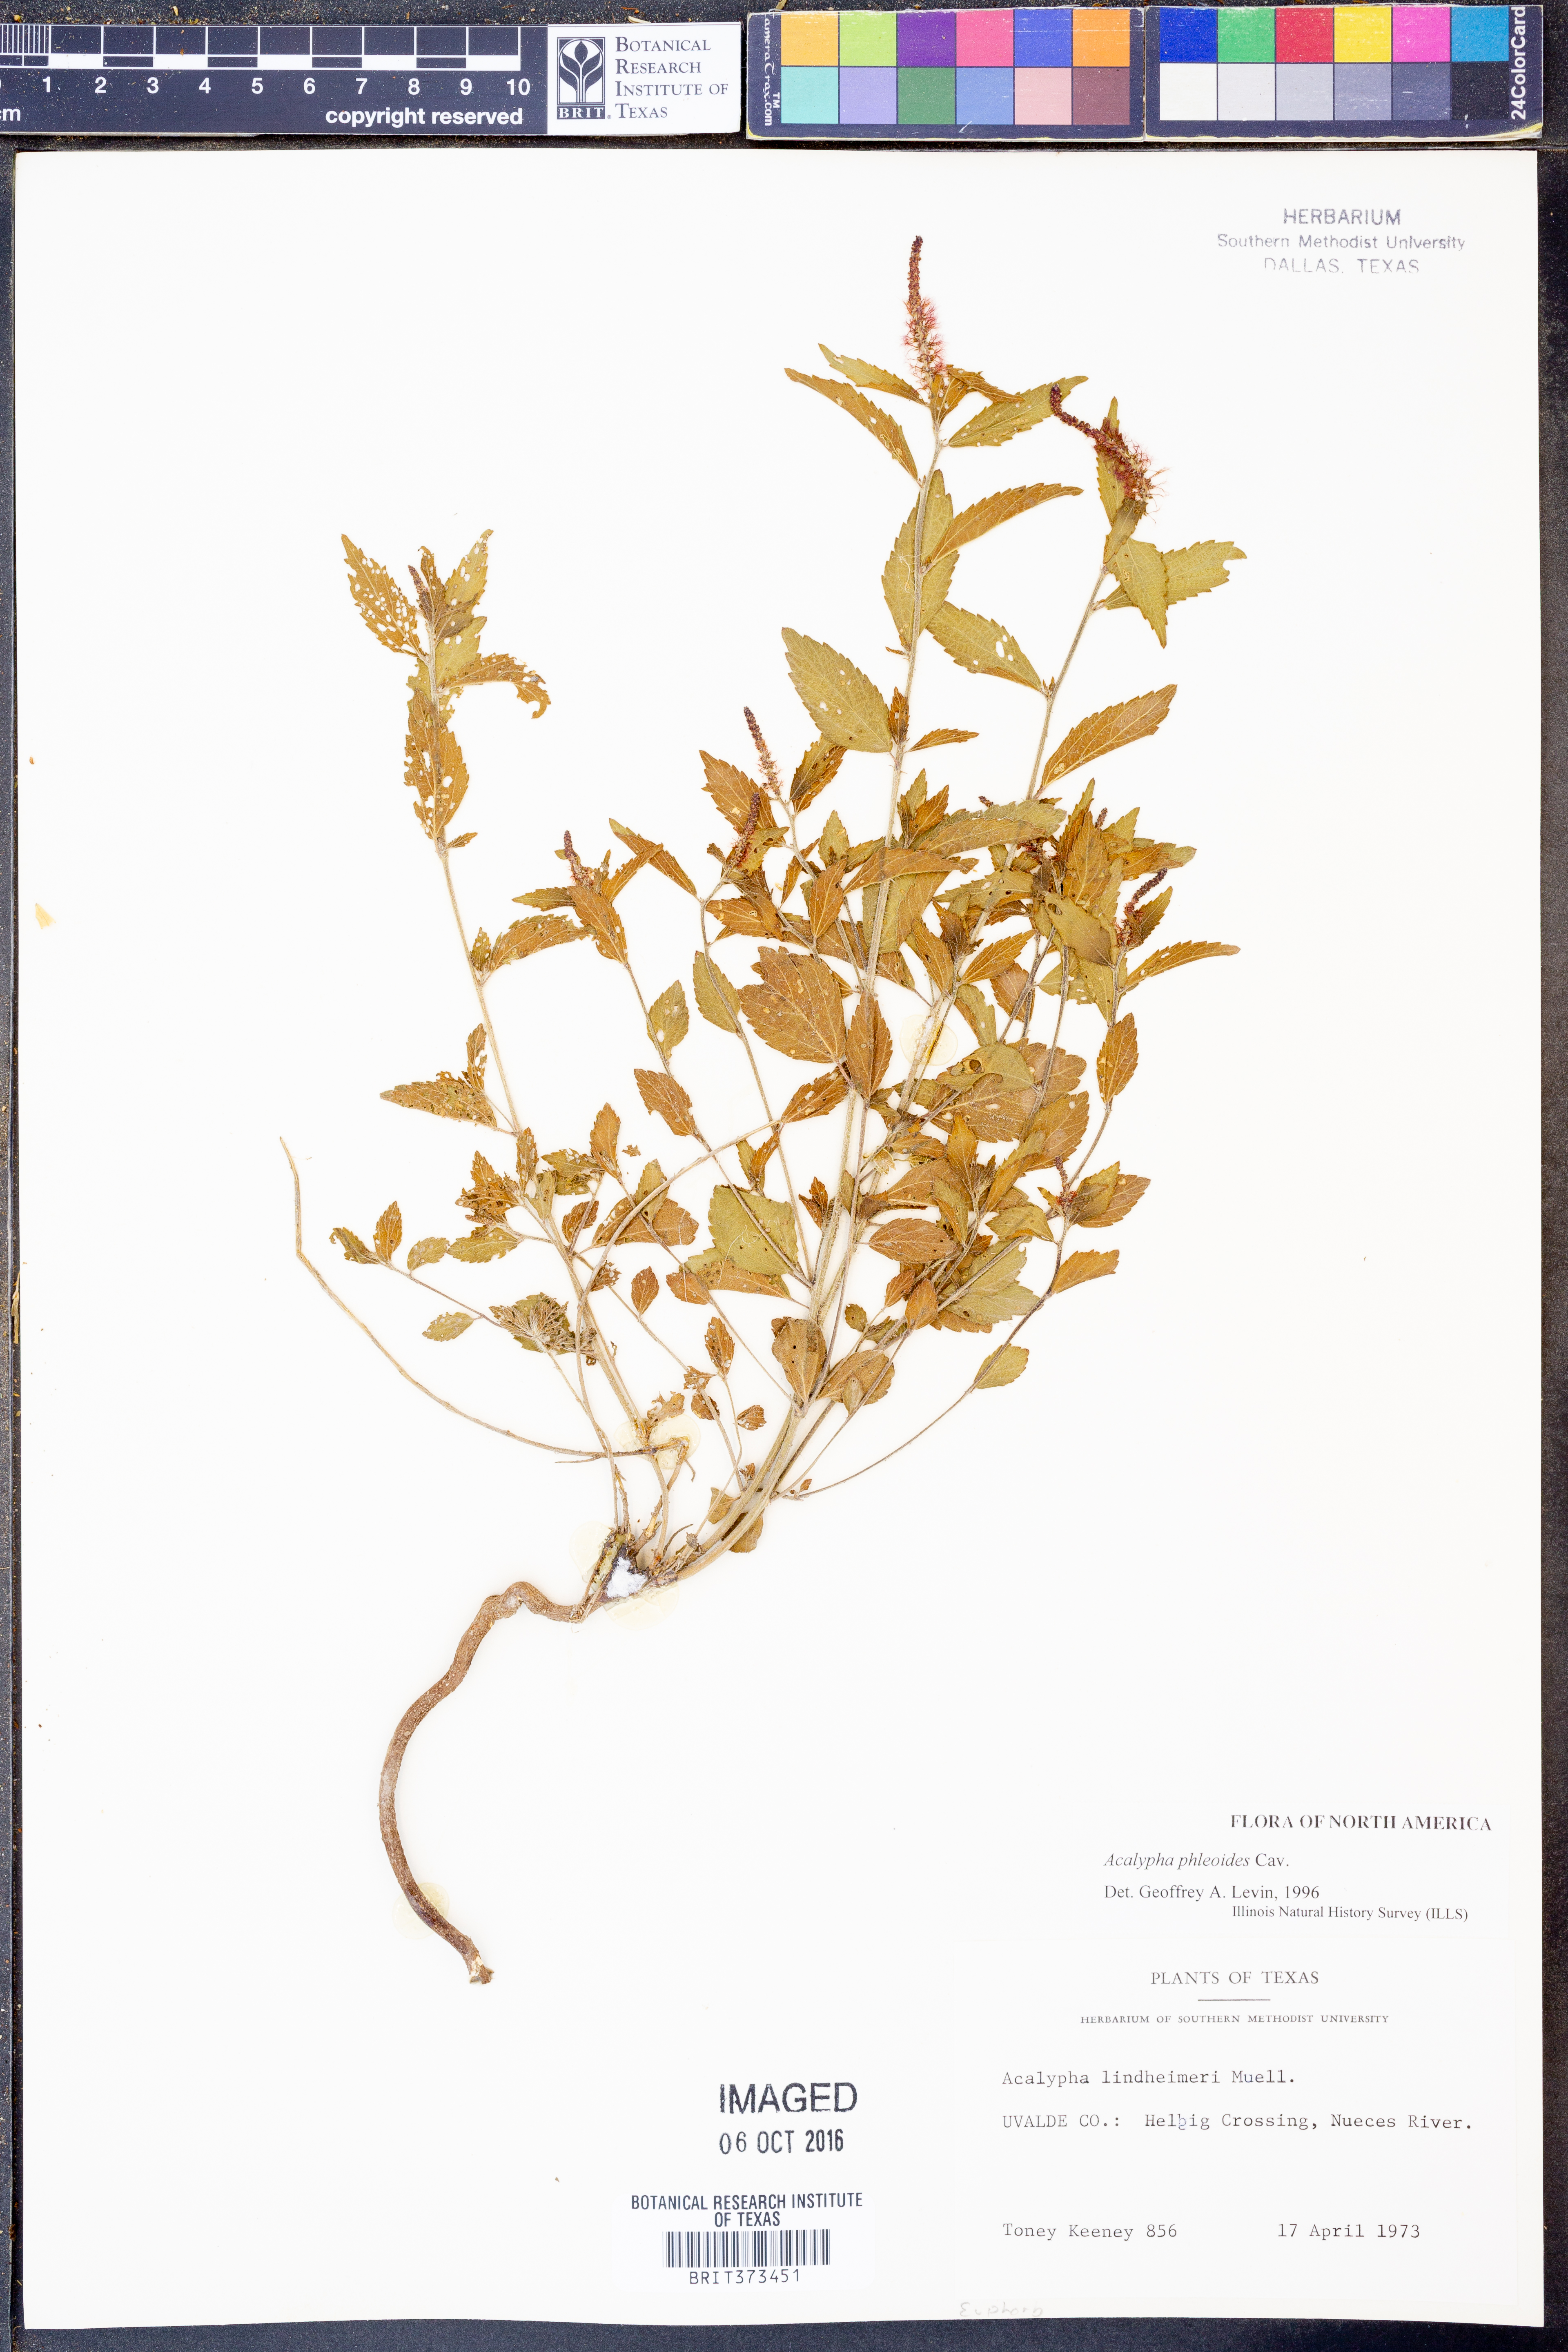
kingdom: Plantae
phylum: Tracheophyta
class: Magnoliopsida
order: Malpighiales
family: Euphorbiaceae
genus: Acalypha
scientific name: Acalypha phleoides
